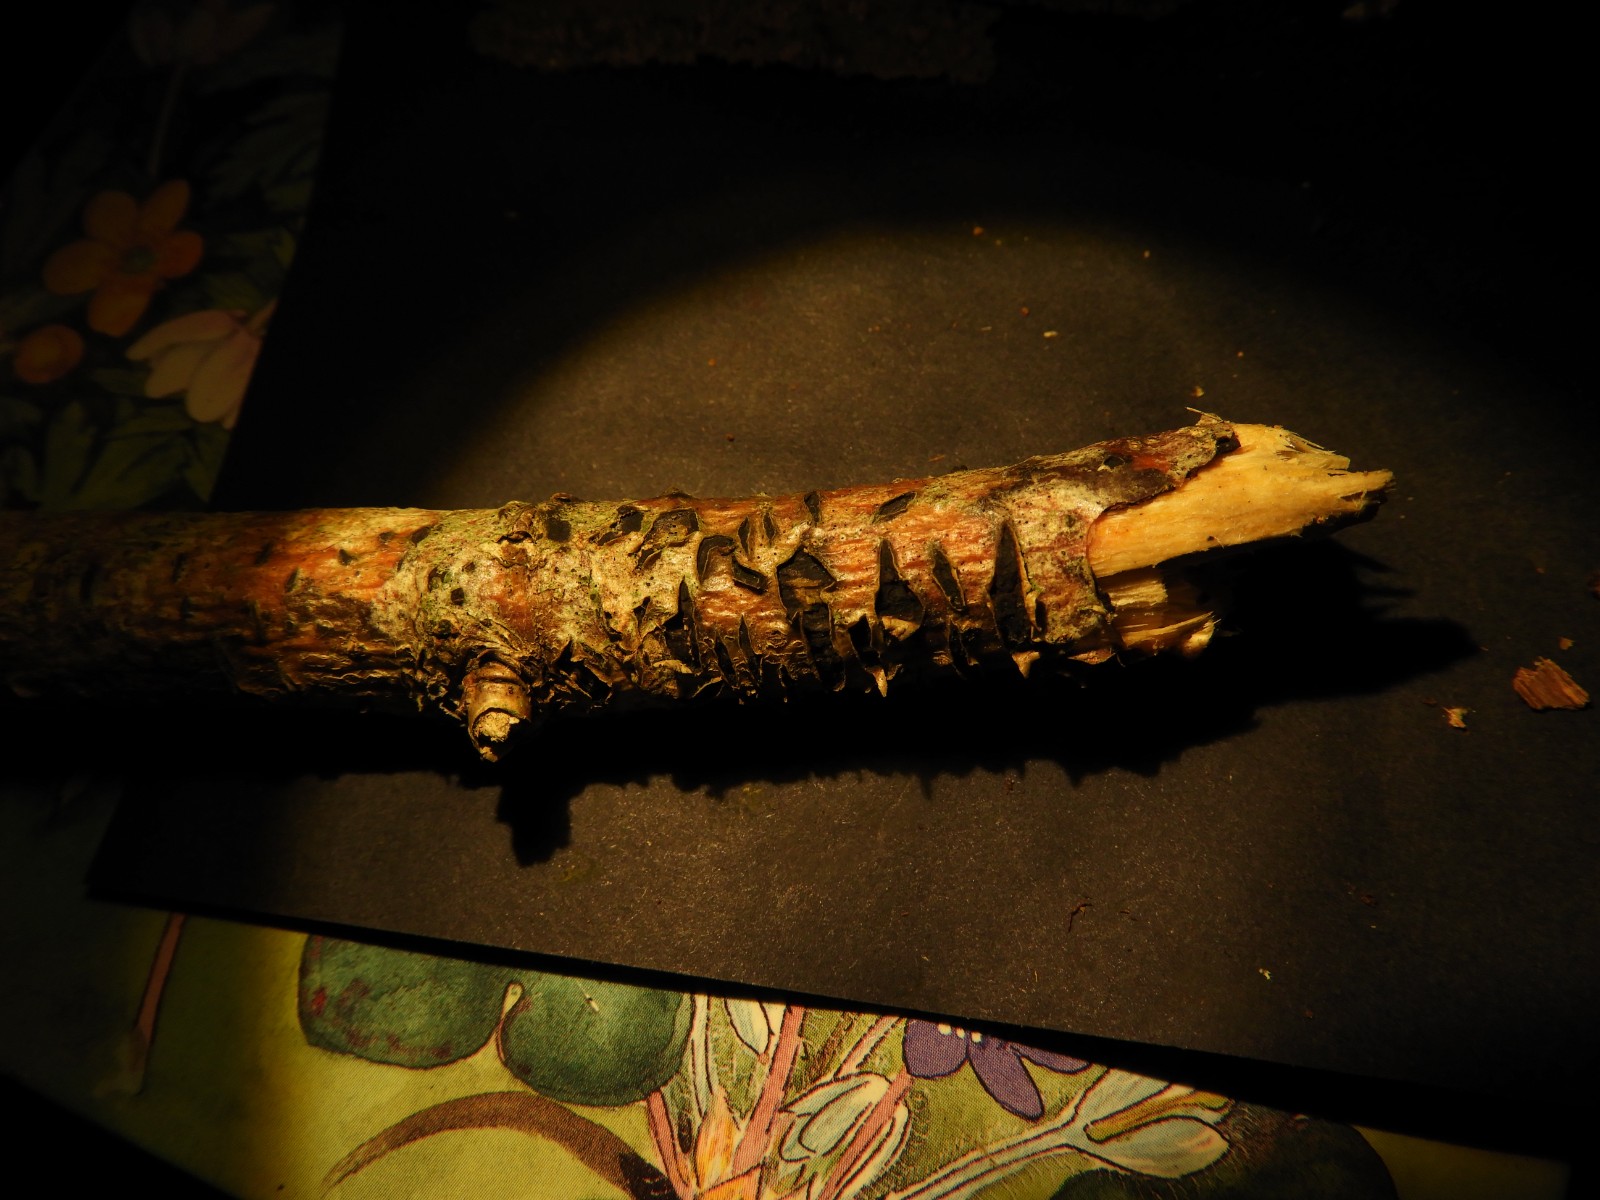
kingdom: Fungi
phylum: Ascomycota
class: Leotiomycetes
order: Rhytismatales
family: Rhytismataceae
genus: Colpoma
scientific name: Colpoma quercinum
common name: ege-sprækkeskive
